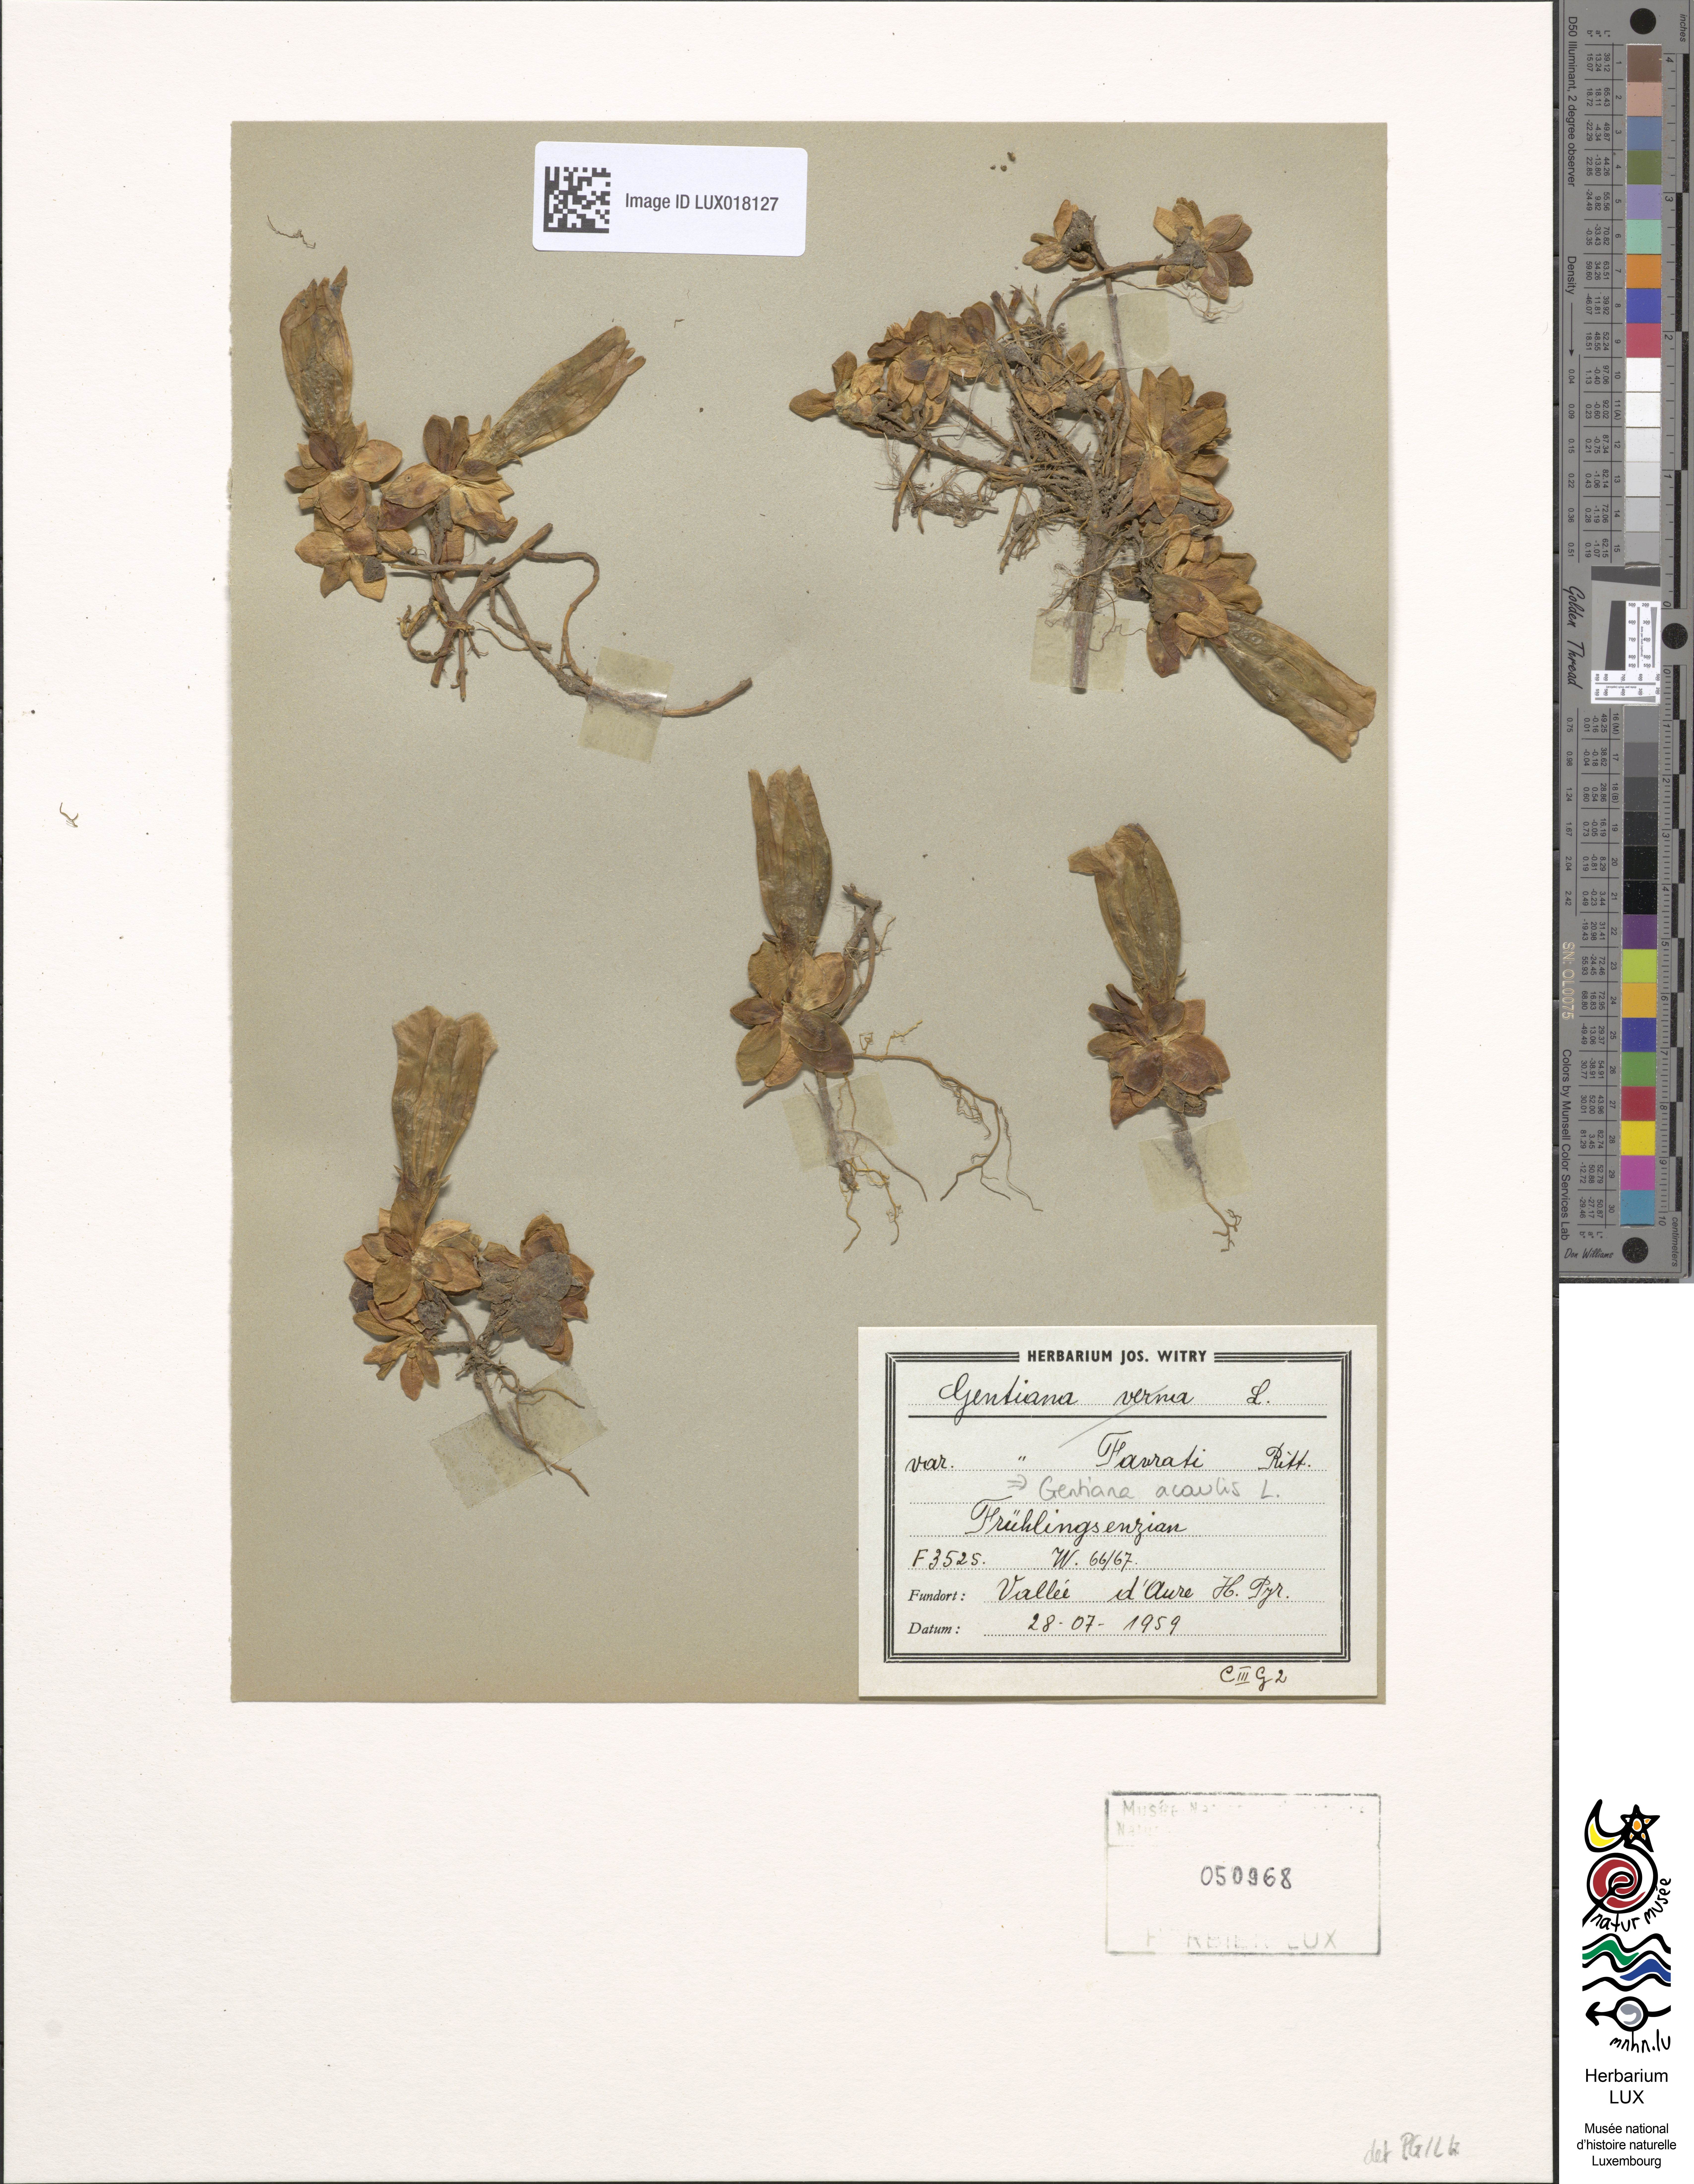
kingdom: Plantae
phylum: Tracheophyta
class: Magnoliopsida
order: Gentianales
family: Gentianaceae
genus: Gentiana
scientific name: Gentiana acaulis
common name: Trumpet gentian
